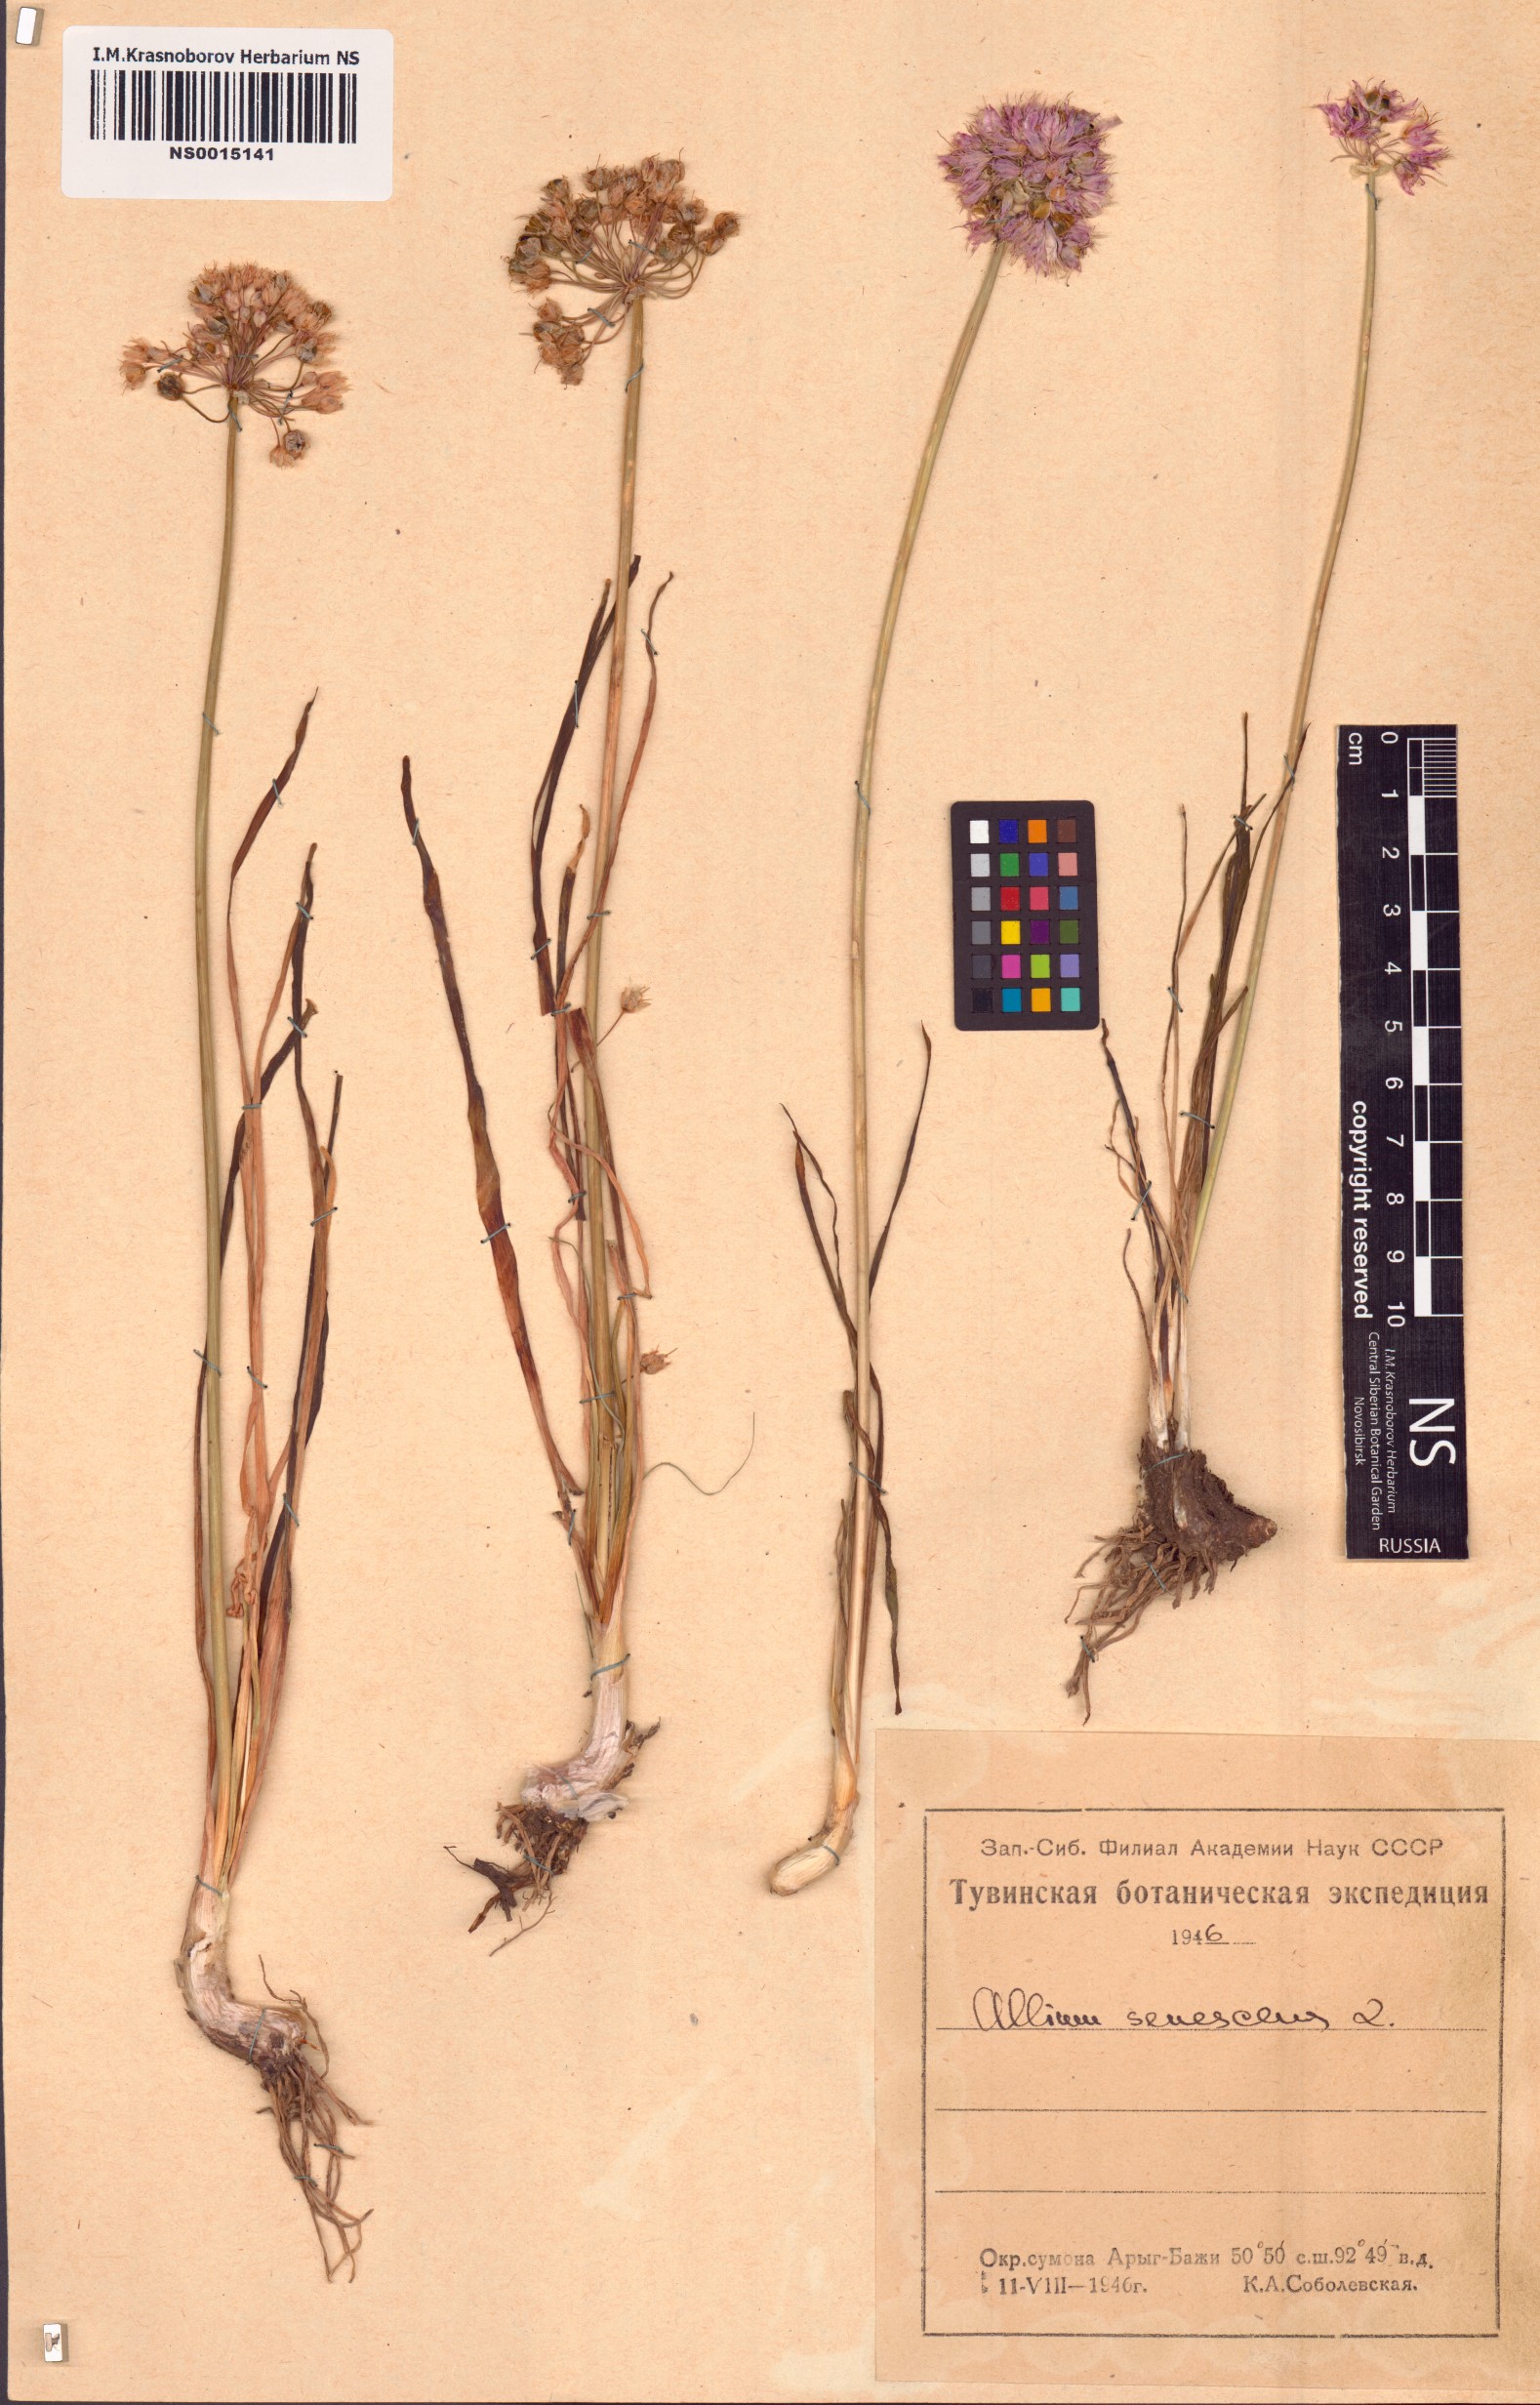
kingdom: Plantae
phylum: Tracheophyta
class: Liliopsida
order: Asparagales
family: Amaryllidaceae
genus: Allium
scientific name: Allium senescens
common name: German garlic
